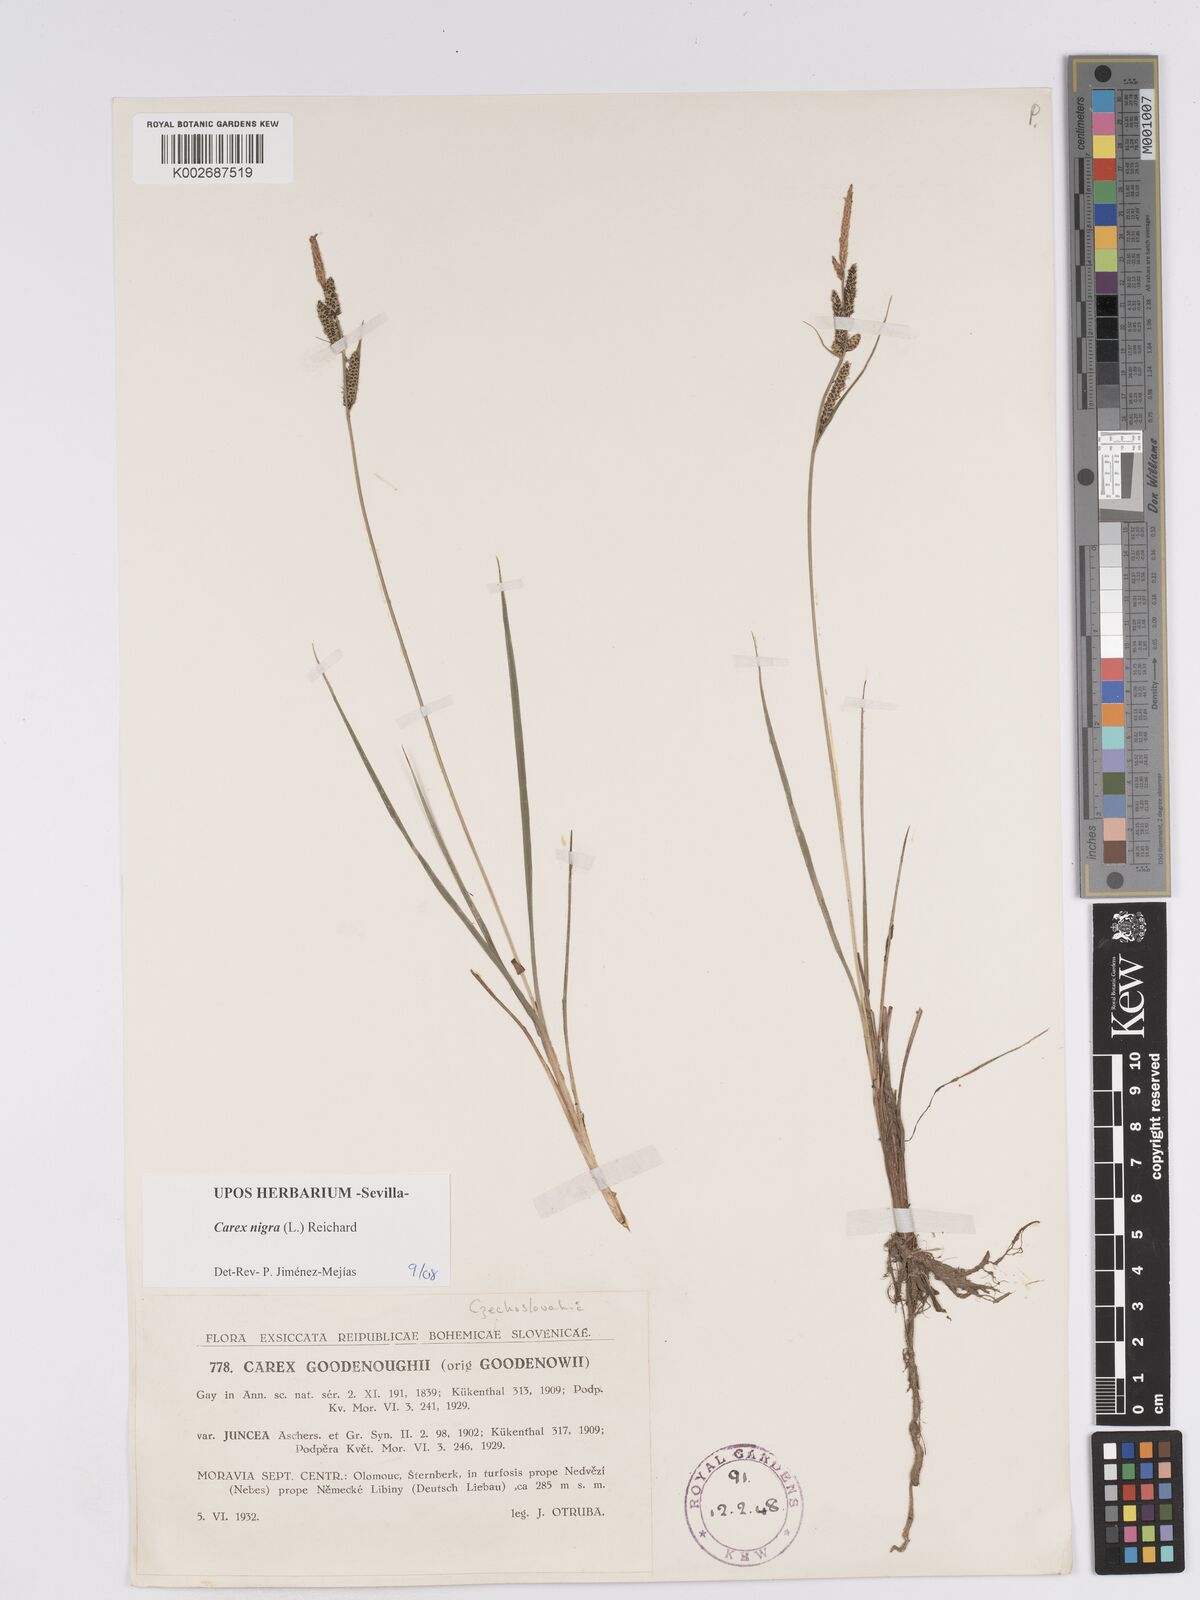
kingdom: Plantae
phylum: Tracheophyta
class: Liliopsida
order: Poales
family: Cyperaceae
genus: Carex
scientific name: Carex nigra
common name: Common sedge
